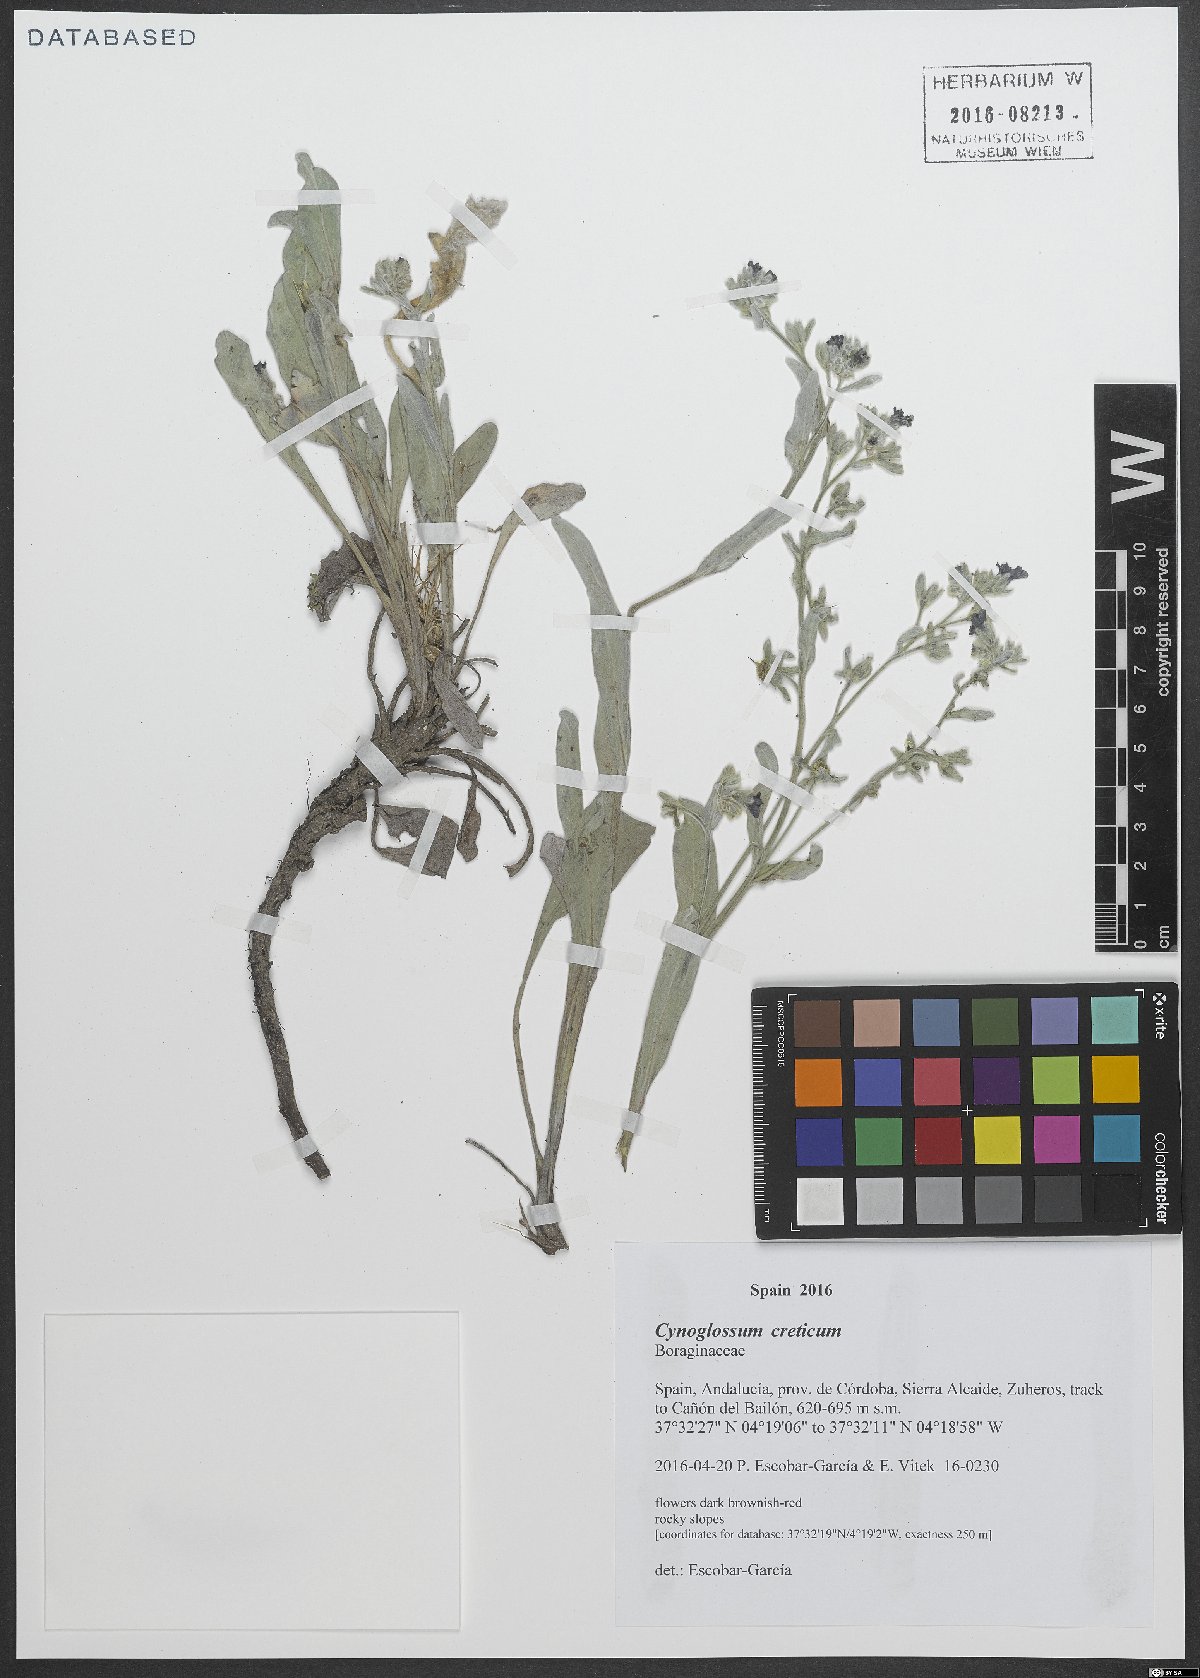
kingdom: Plantae
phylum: Tracheophyta
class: Magnoliopsida
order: Boraginales
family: Boraginaceae
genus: Cynoglossum
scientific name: Cynoglossum creticum
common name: Blue hound's tongue
